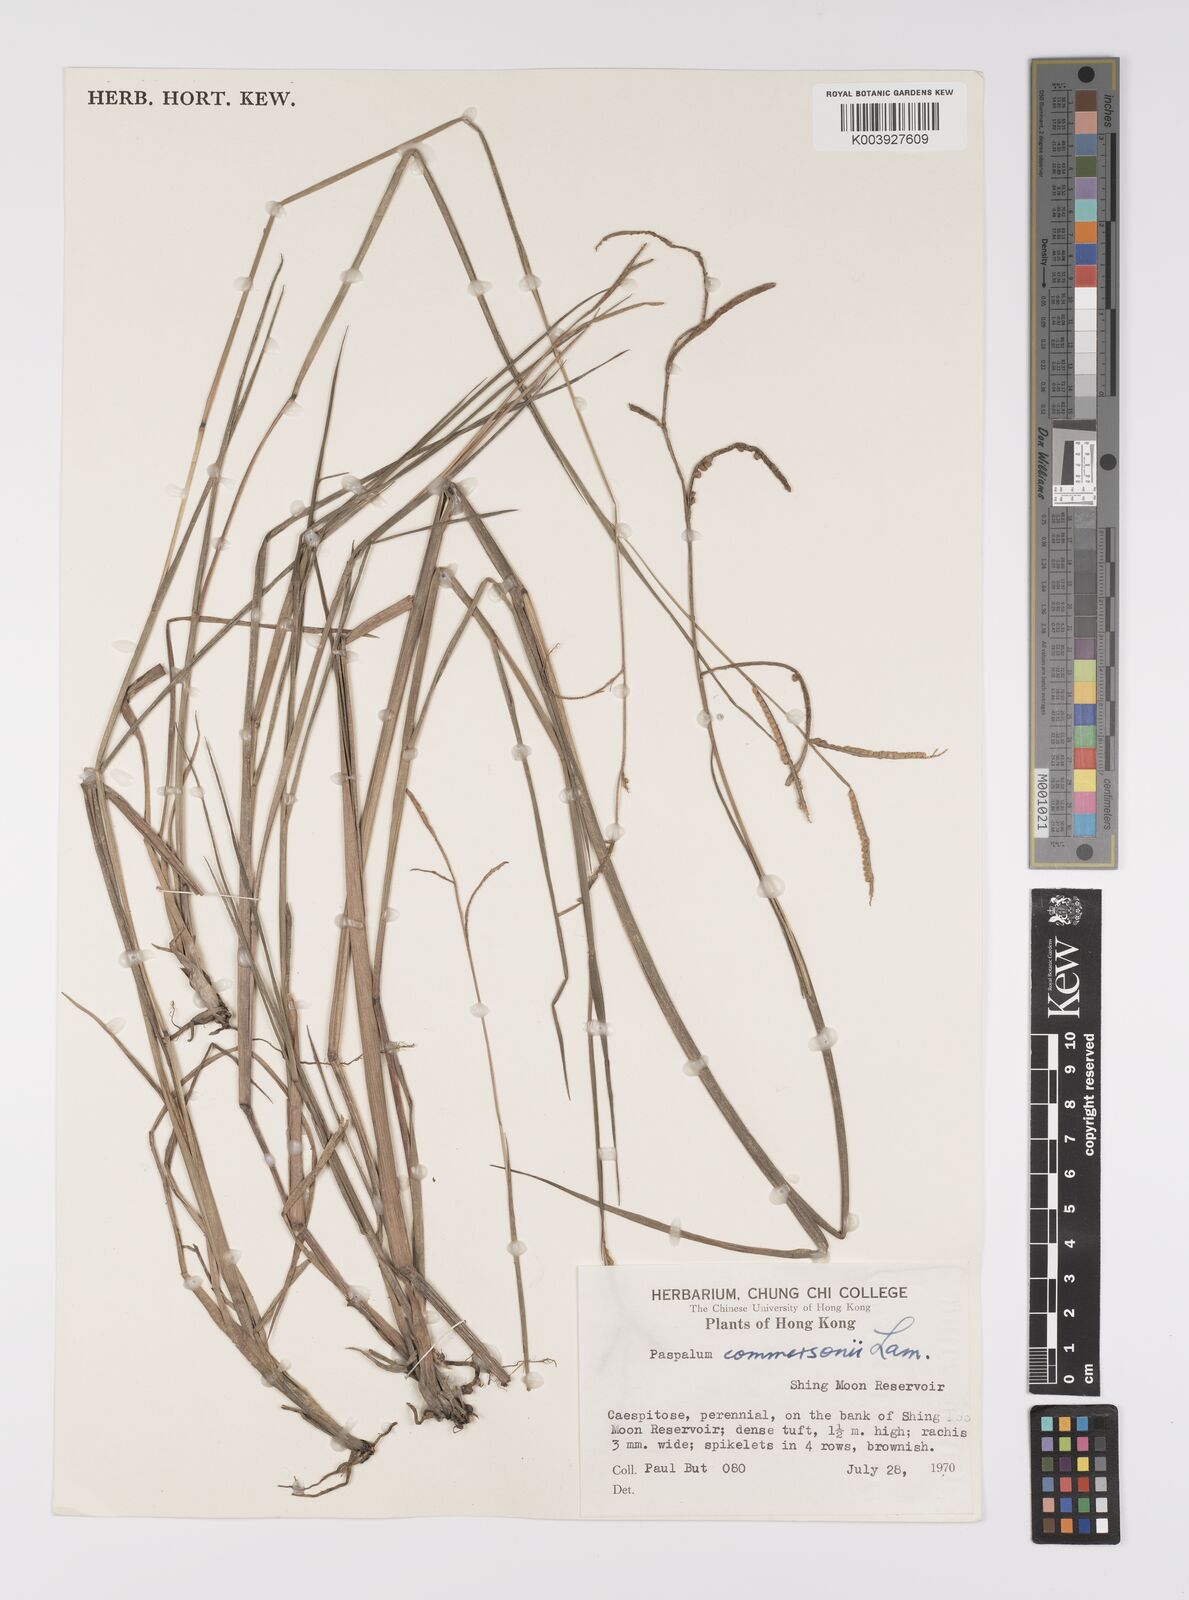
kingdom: Plantae
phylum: Tracheophyta
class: Liliopsida
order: Poales
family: Poaceae
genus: Paspalum
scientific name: Paspalum scrobiculatum
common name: Kodo millet
